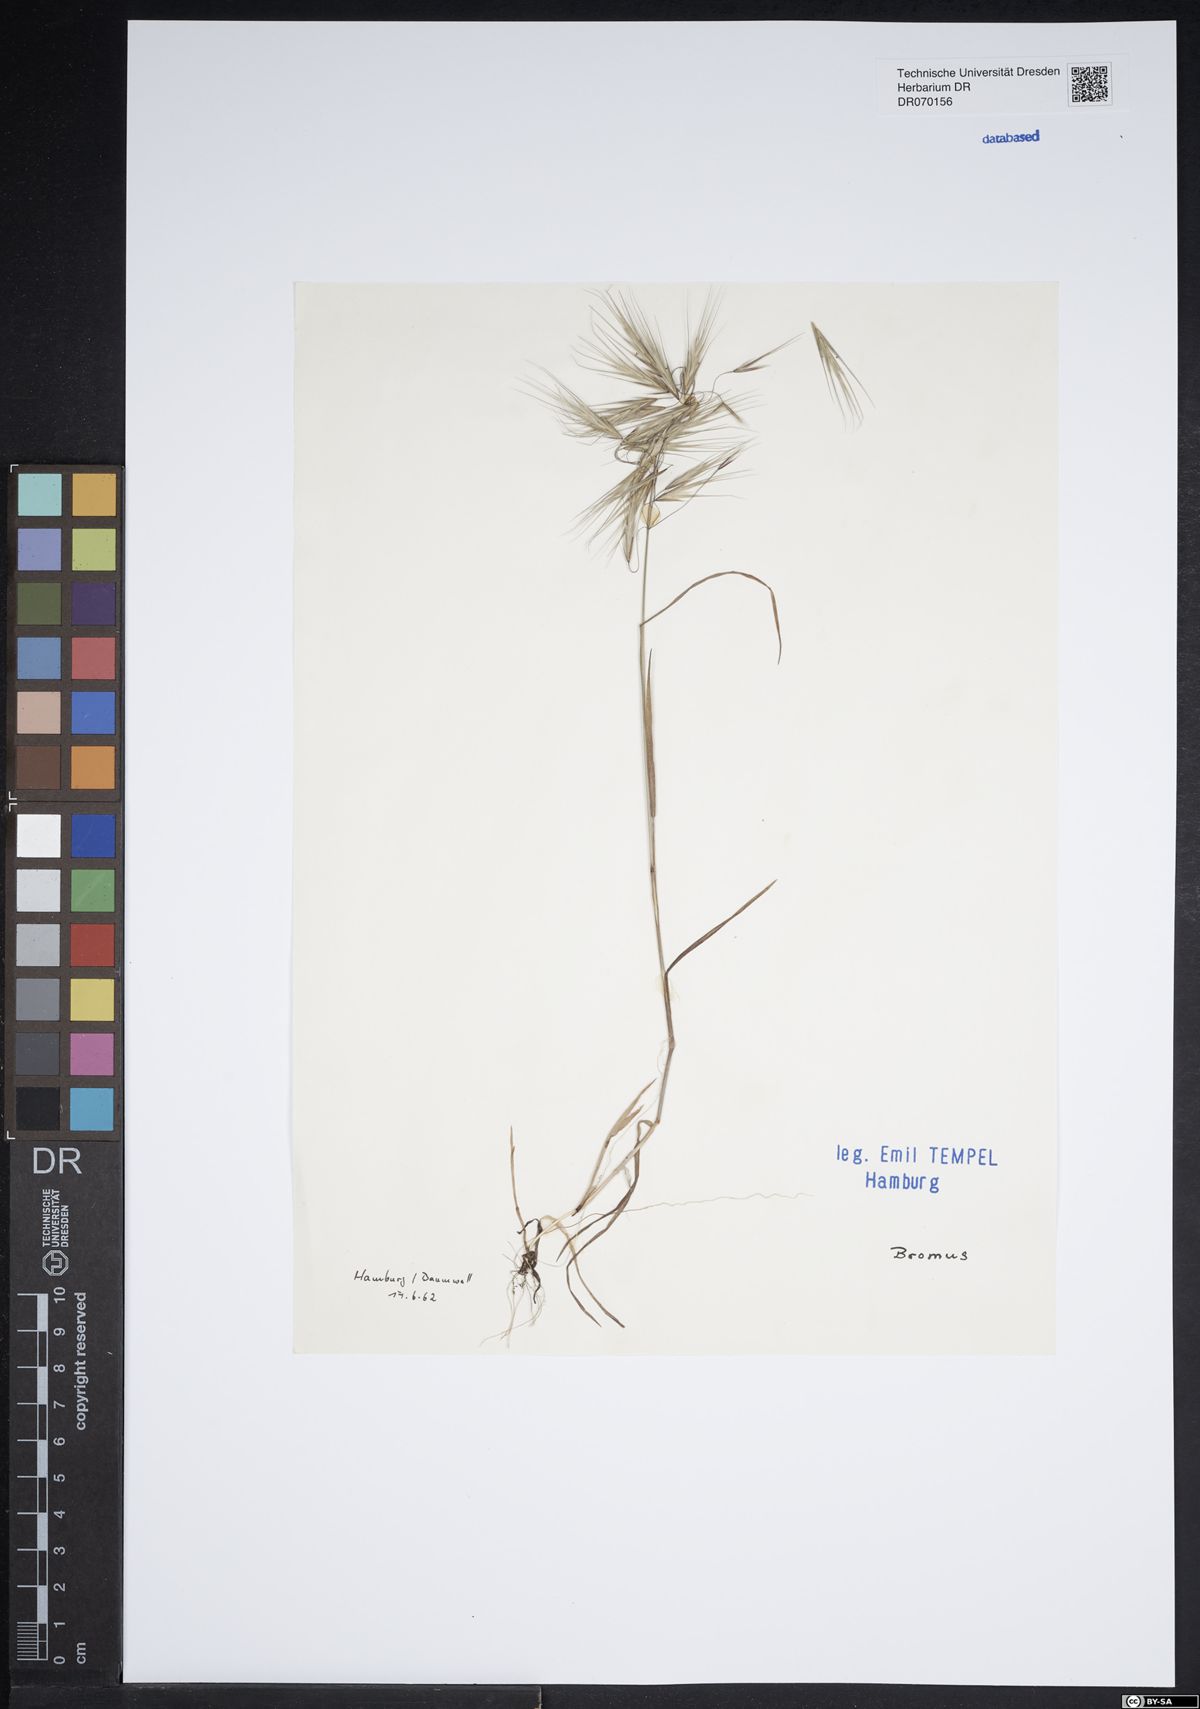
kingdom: Plantae
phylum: Tracheophyta
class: Liliopsida
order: Poales
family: Poaceae
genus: Bromus
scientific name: Bromus
